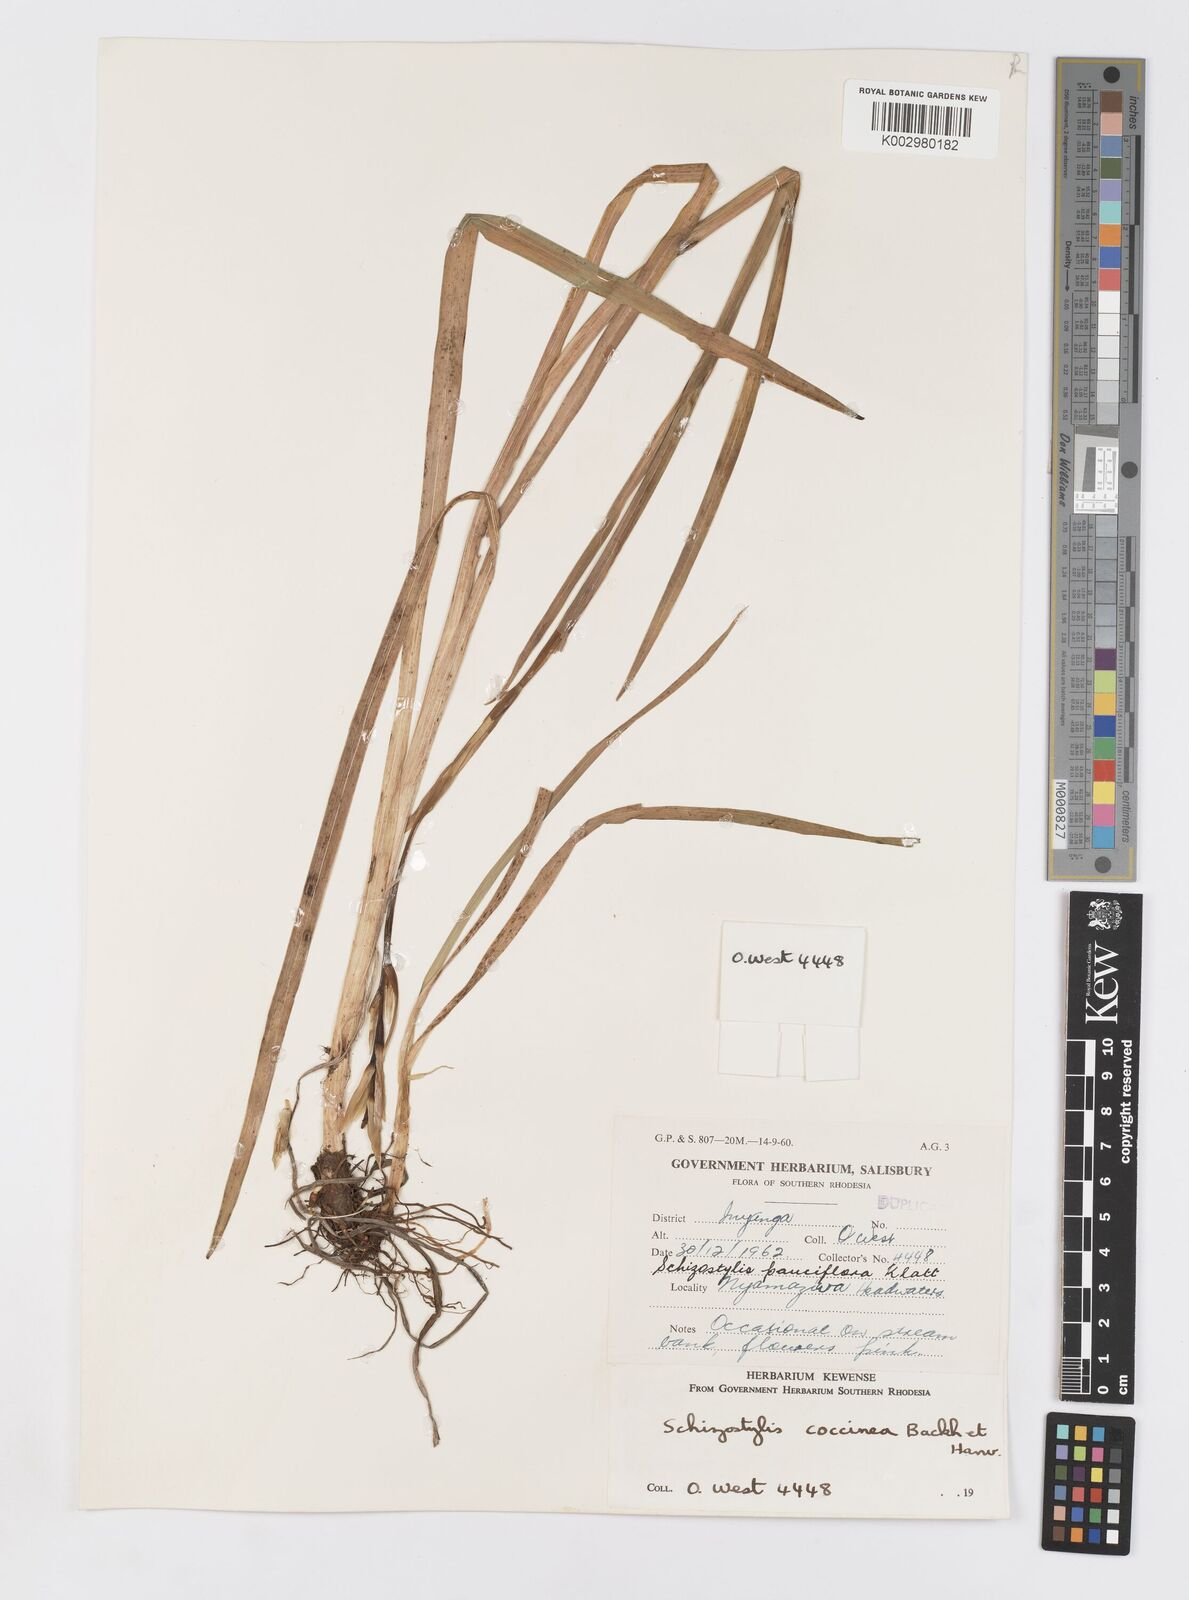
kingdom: Plantae
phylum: Tracheophyta
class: Liliopsida
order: Asparagales
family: Iridaceae
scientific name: Iridaceae
